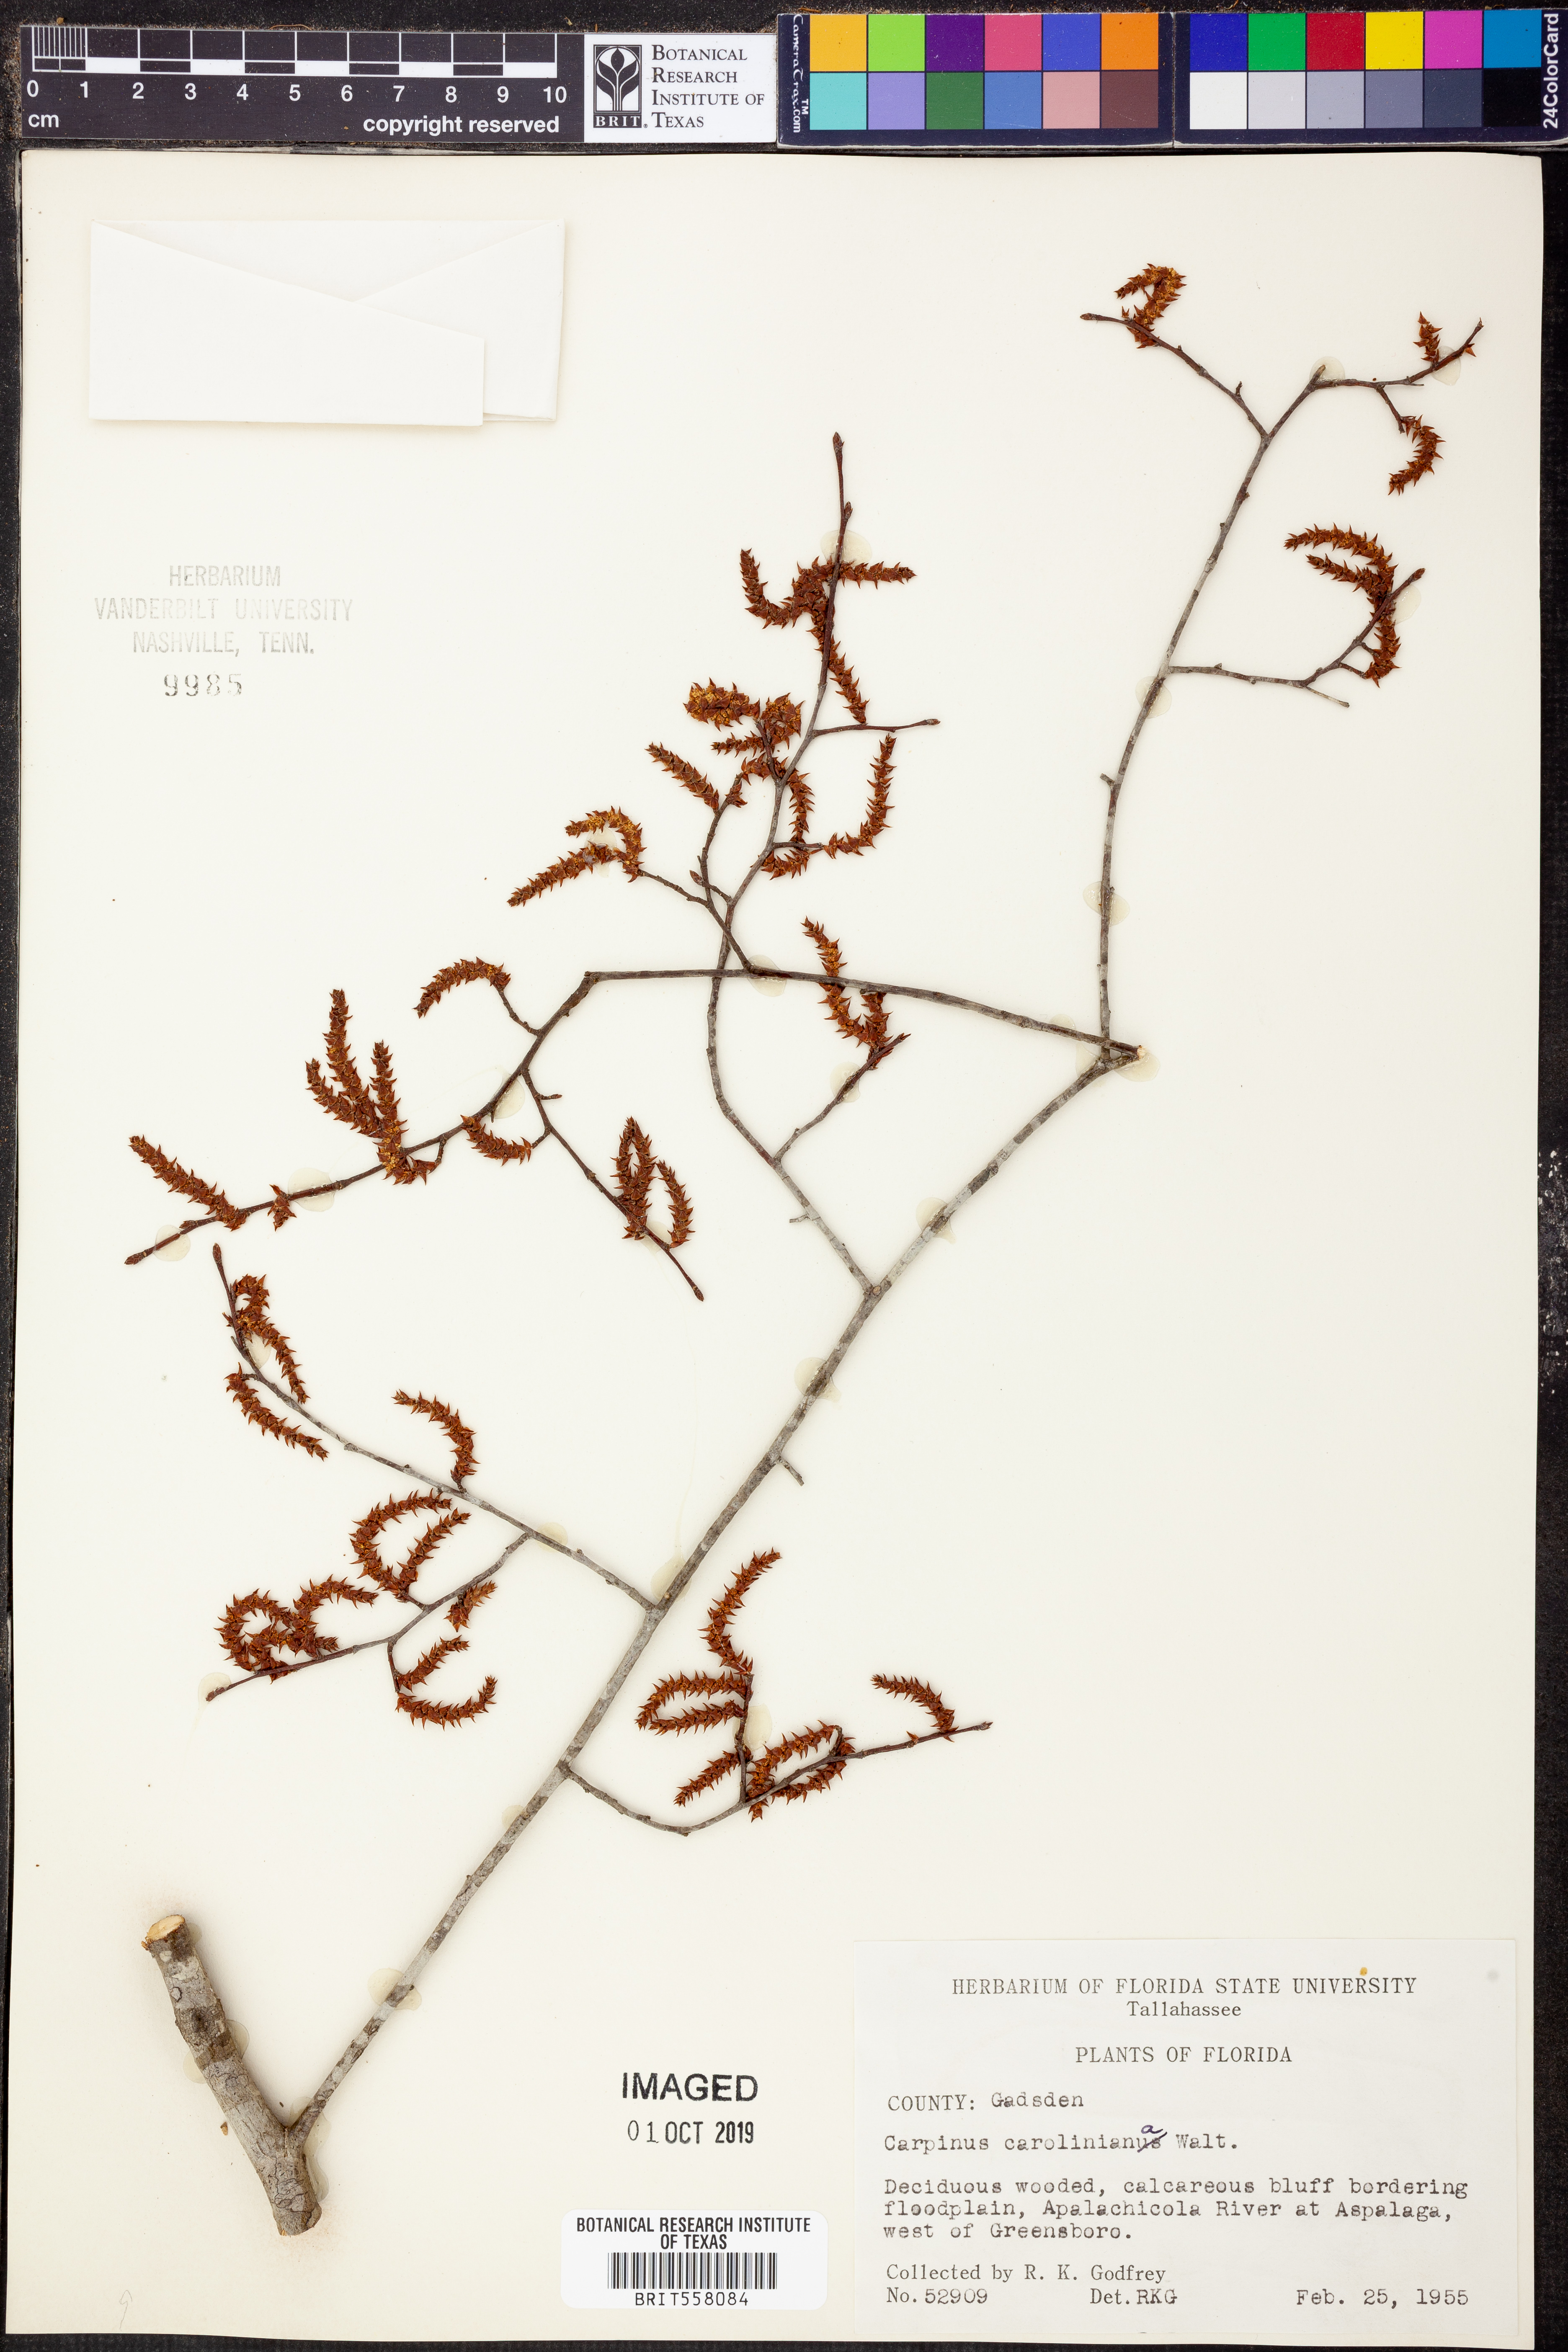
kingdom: Plantae
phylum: Tracheophyta
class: Magnoliopsida
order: Fagales
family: Betulaceae
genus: Carpinus
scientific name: Carpinus caroliniana
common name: American hornbeam
